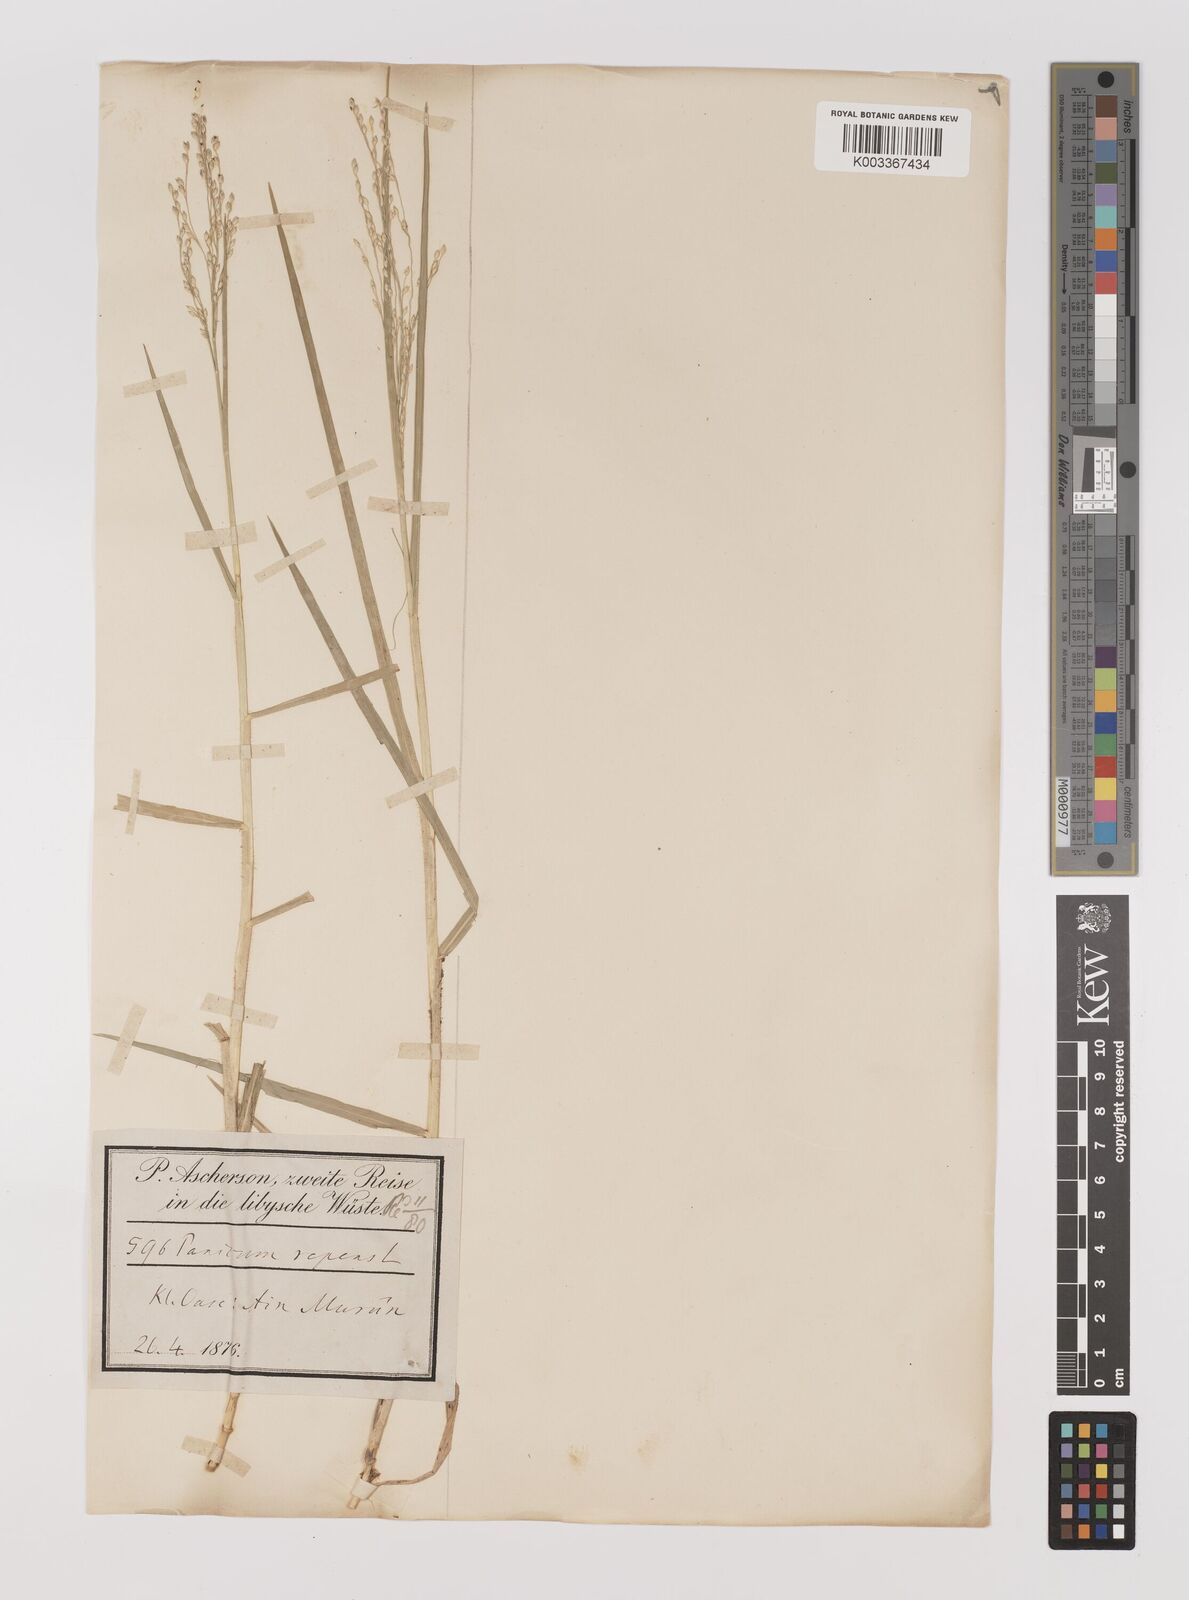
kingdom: Plantae
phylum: Tracheophyta
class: Liliopsida
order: Poales
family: Poaceae
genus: Panicum
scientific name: Panicum repens
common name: Torpedo grass
